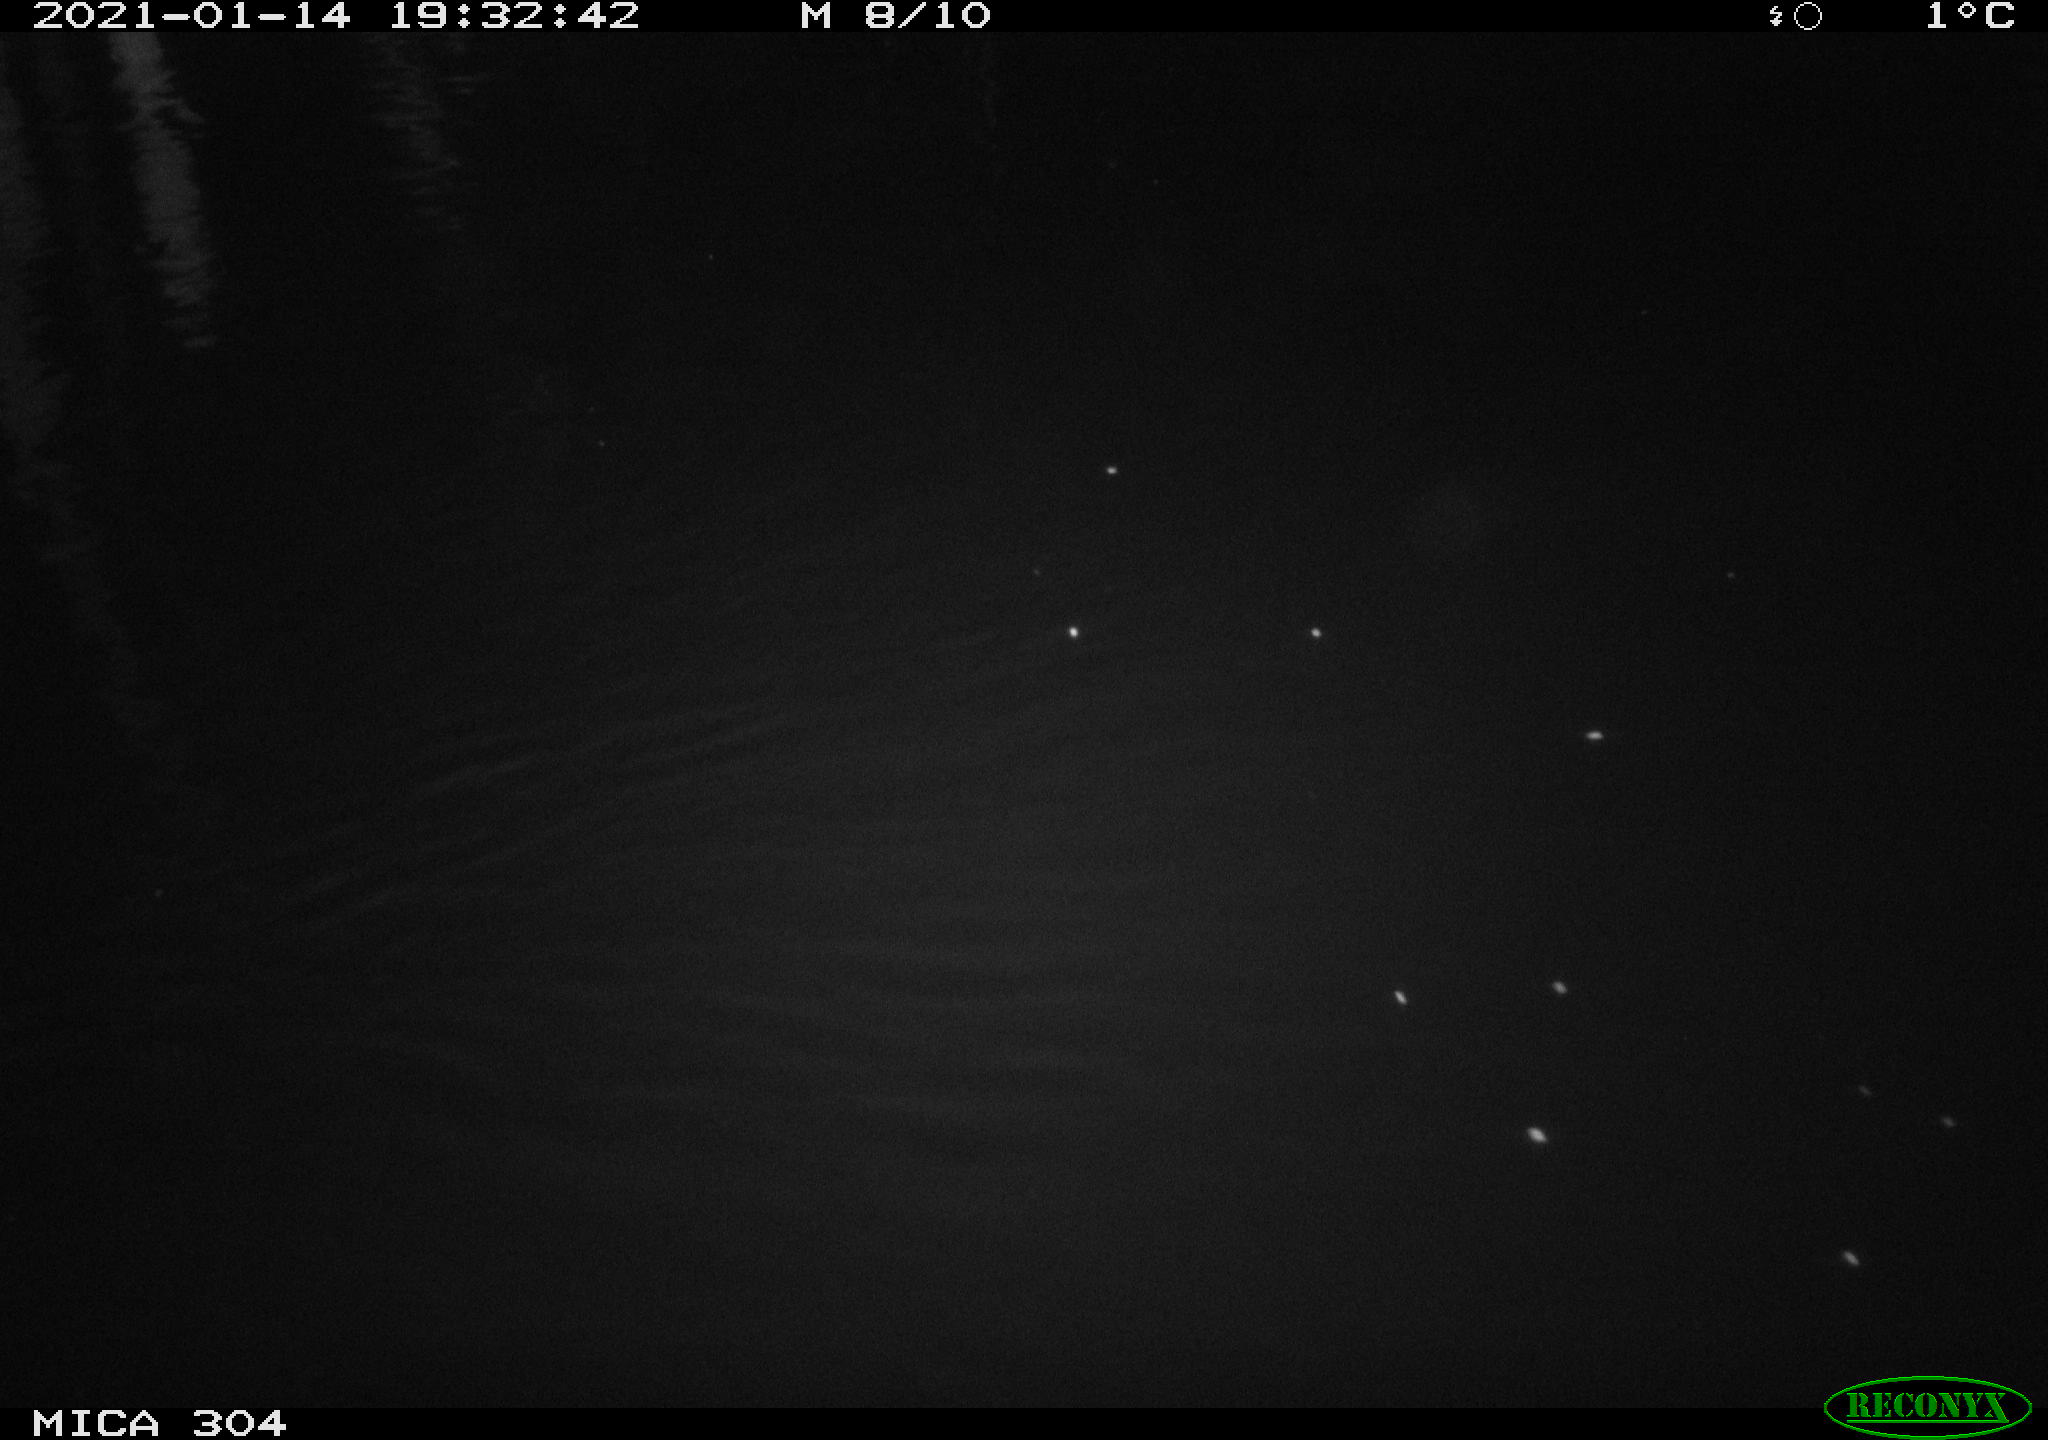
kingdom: Animalia
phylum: Chordata
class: Mammalia
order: Rodentia
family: Muridae
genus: Rattus
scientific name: Rattus norvegicus
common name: Brown rat
